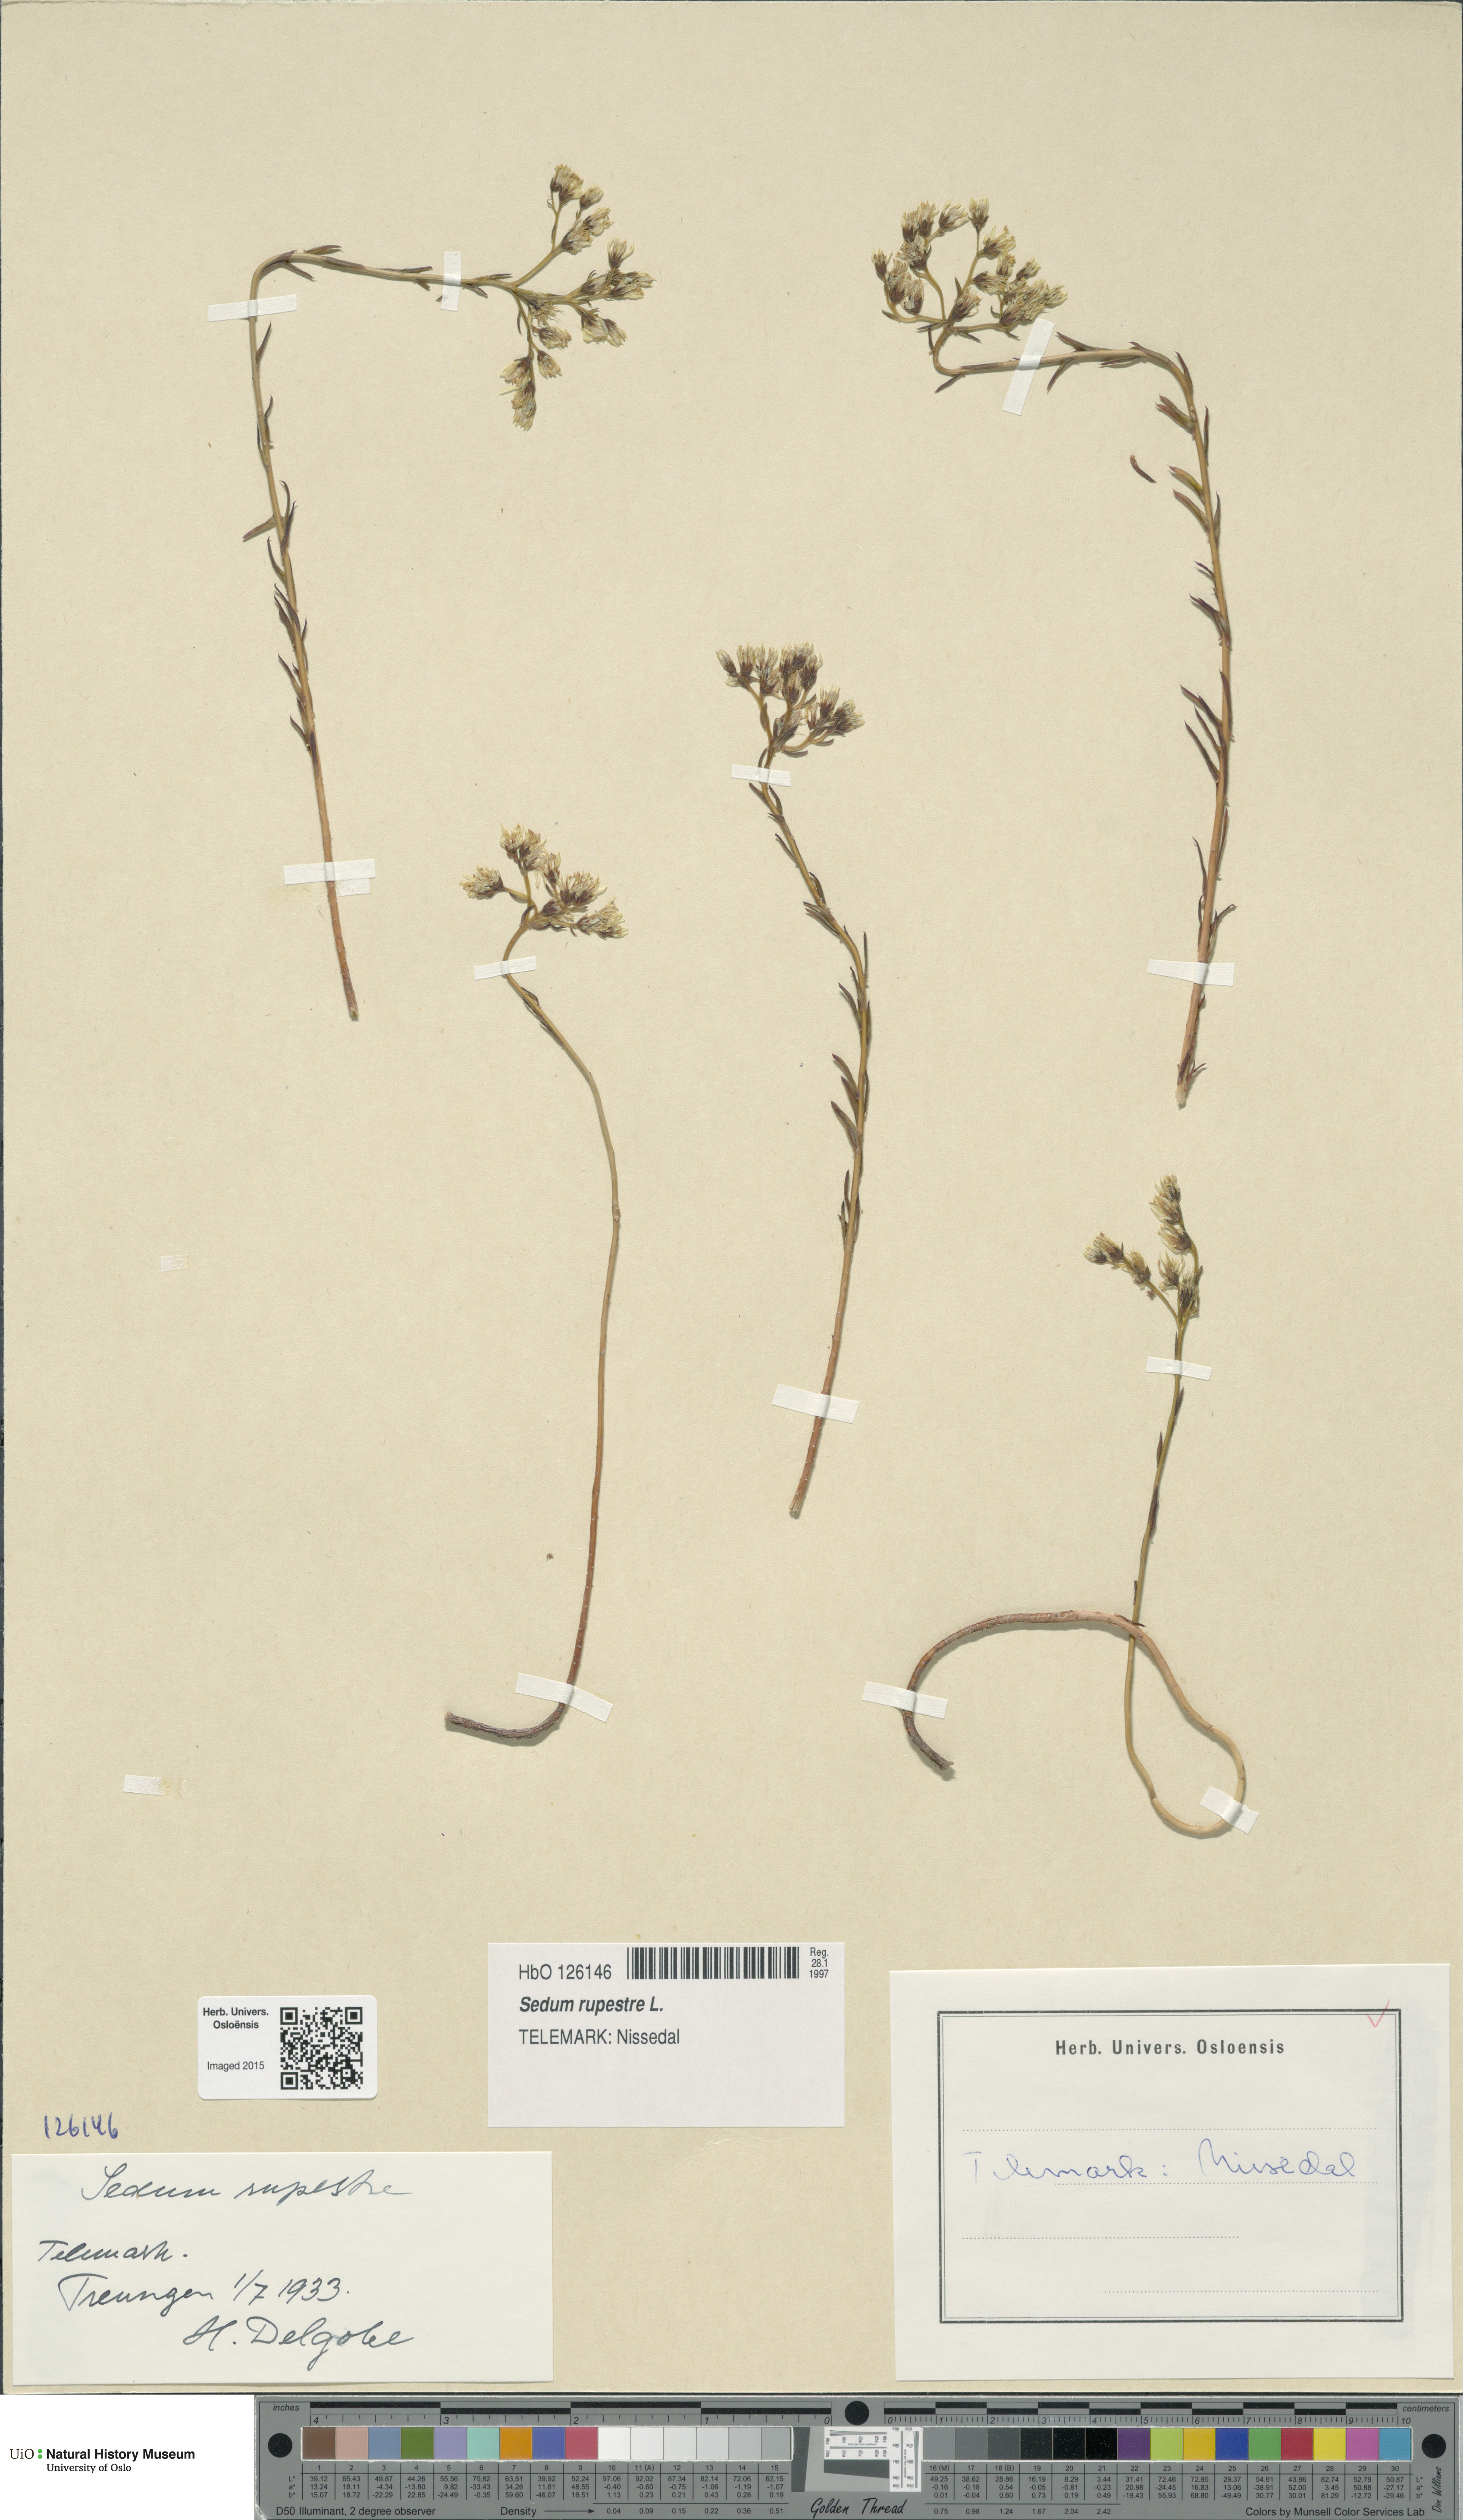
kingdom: Plantae
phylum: Tracheophyta
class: Magnoliopsida
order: Saxifragales
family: Crassulaceae
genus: Petrosedum
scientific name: Petrosedum rupestre
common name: Jenny's stonecrop
